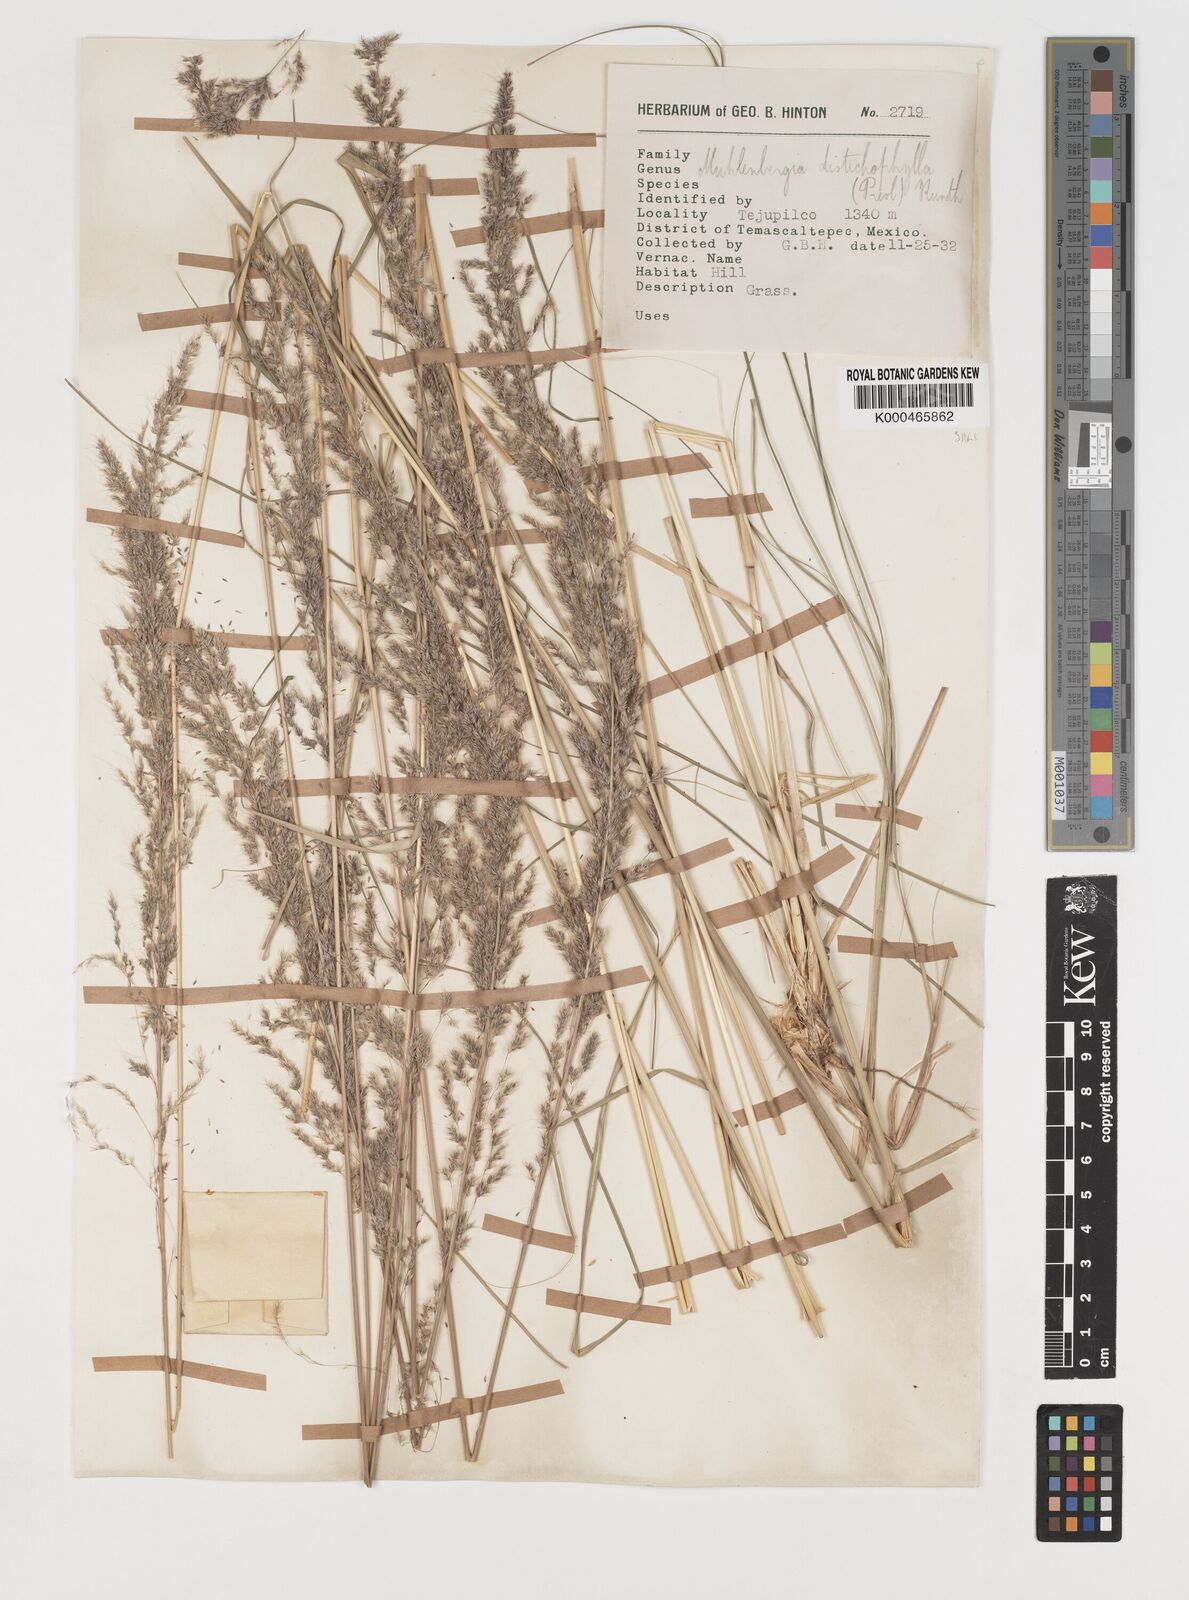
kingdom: Plantae
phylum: Tracheophyta
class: Liliopsida
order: Poales
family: Poaceae
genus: Muhlenbergia
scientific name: Muhlenbergia distichophylla
